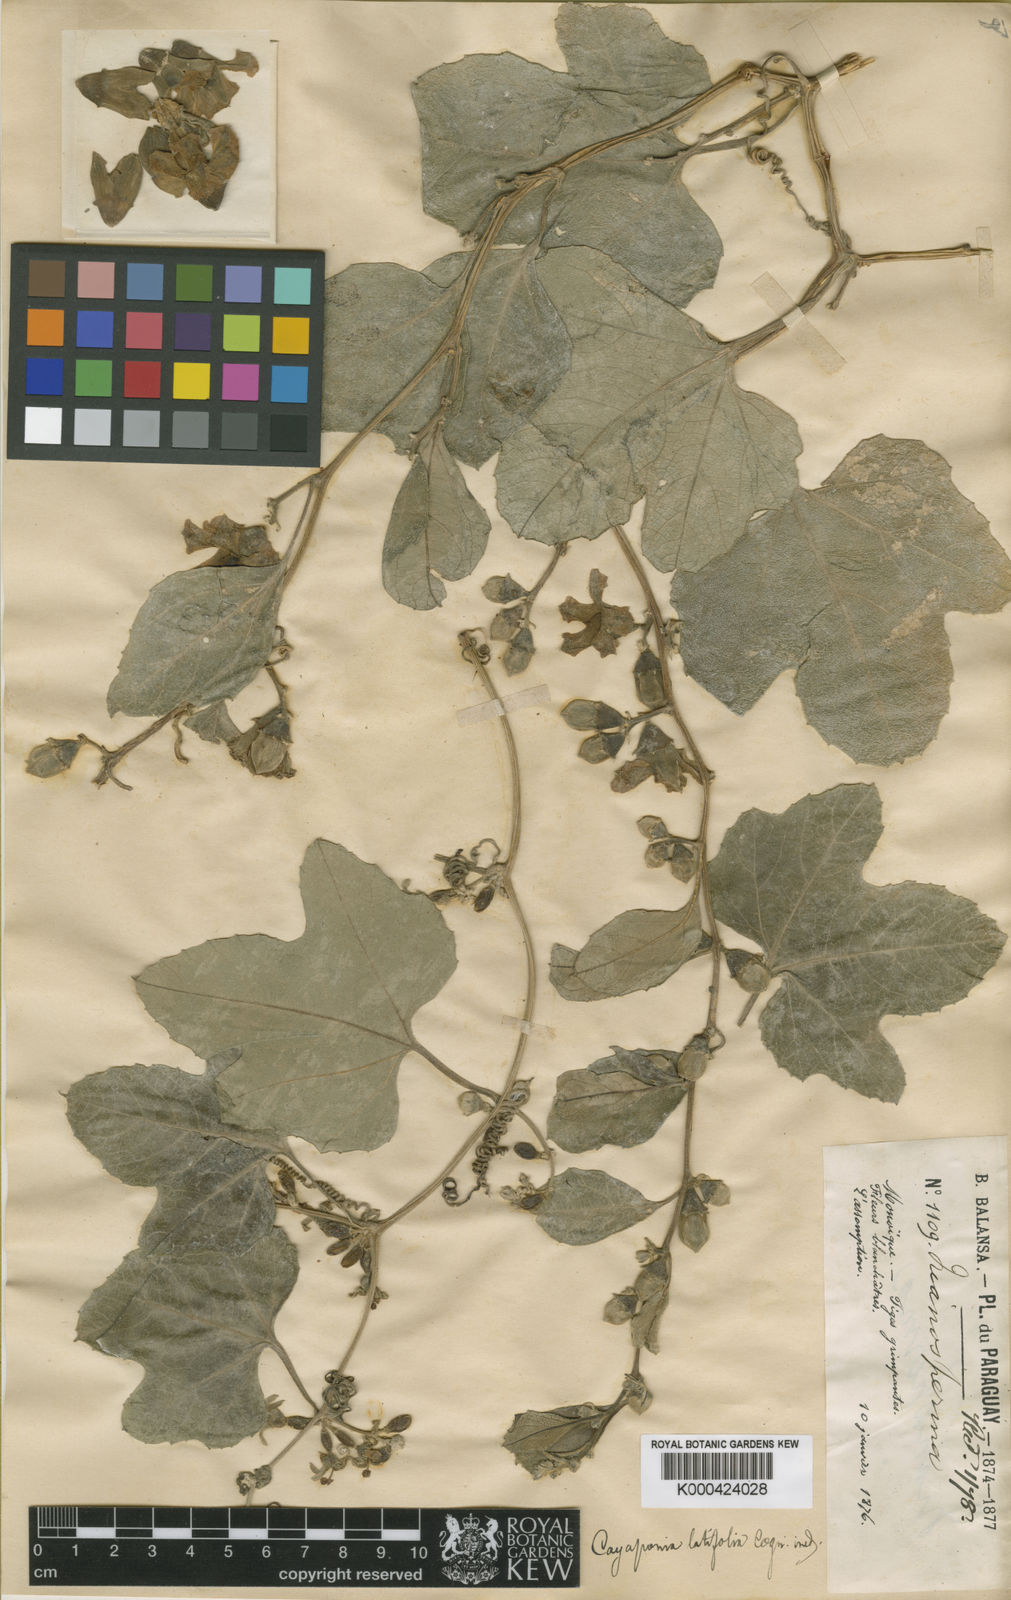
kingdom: Plantae
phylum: Tracheophyta
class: Magnoliopsida
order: Cucurbitales
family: Cucurbitaceae
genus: Cayaponia
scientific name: Cayaponia
